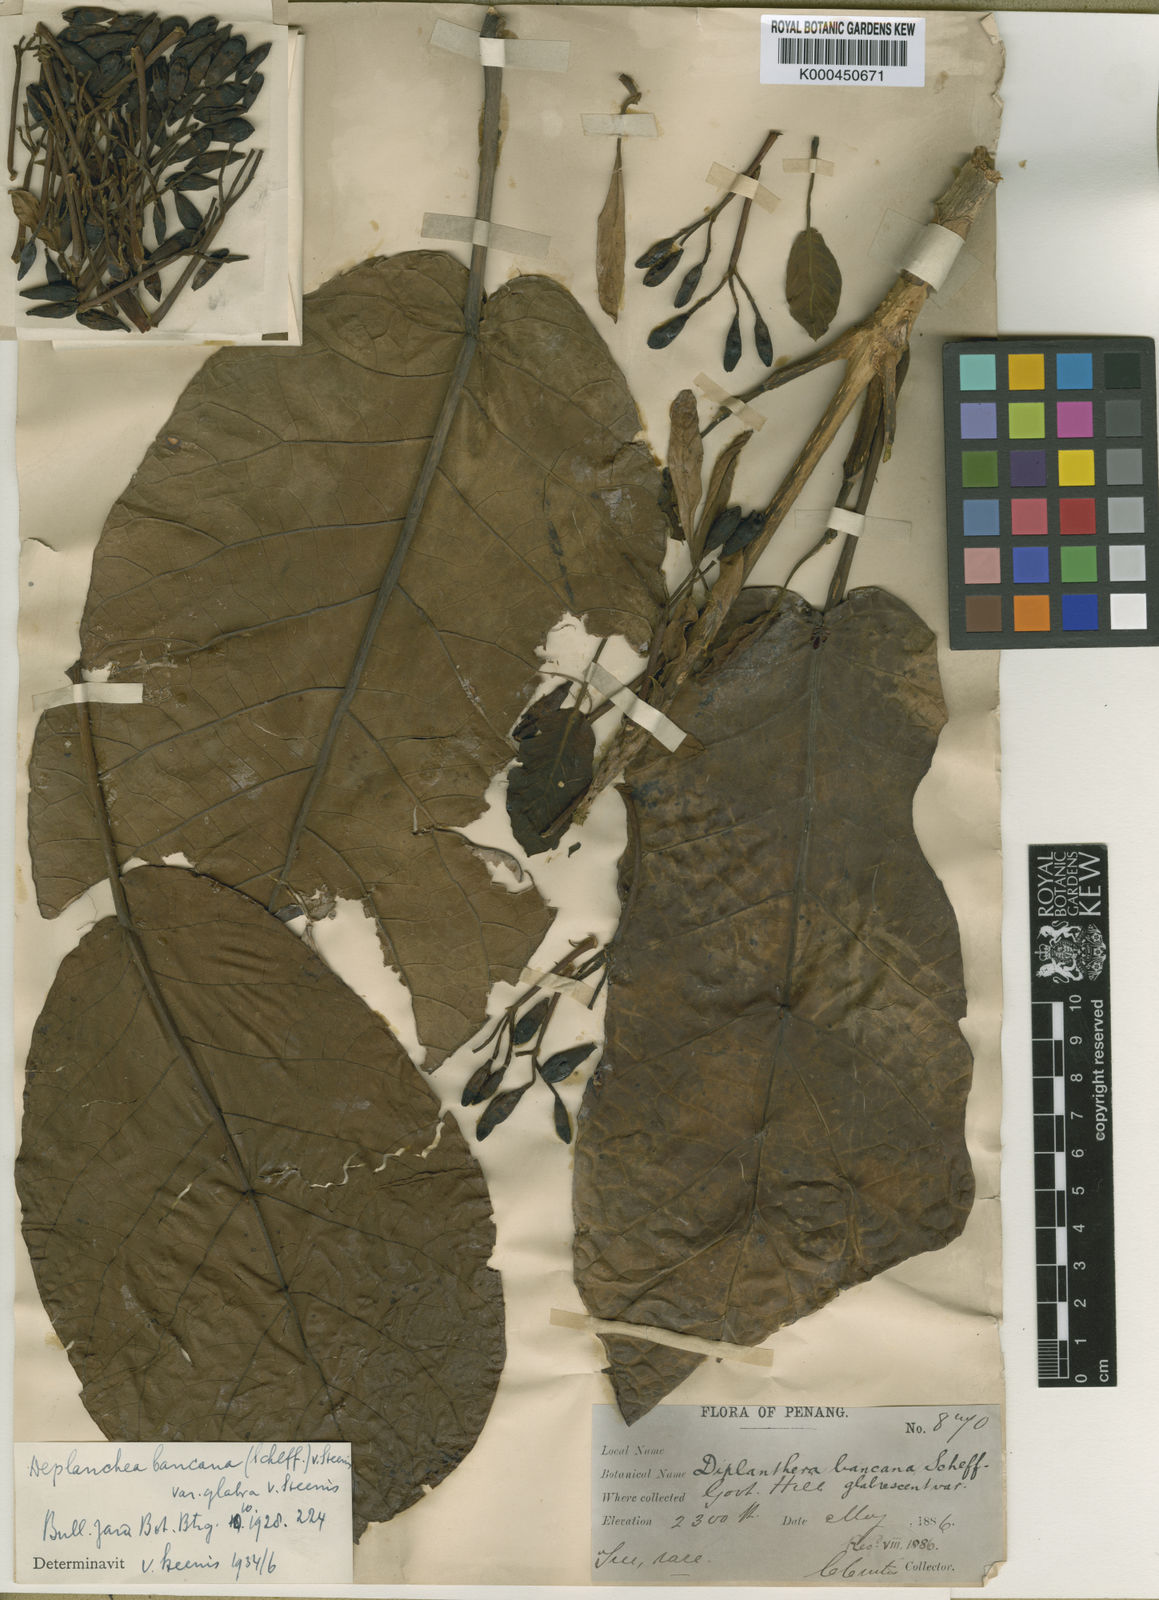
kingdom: Plantae
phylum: Tracheophyta
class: Magnoliopsida
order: Lamiales
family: Bignoniaceae
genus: Deplanchea
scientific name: Deplanchea bancana
